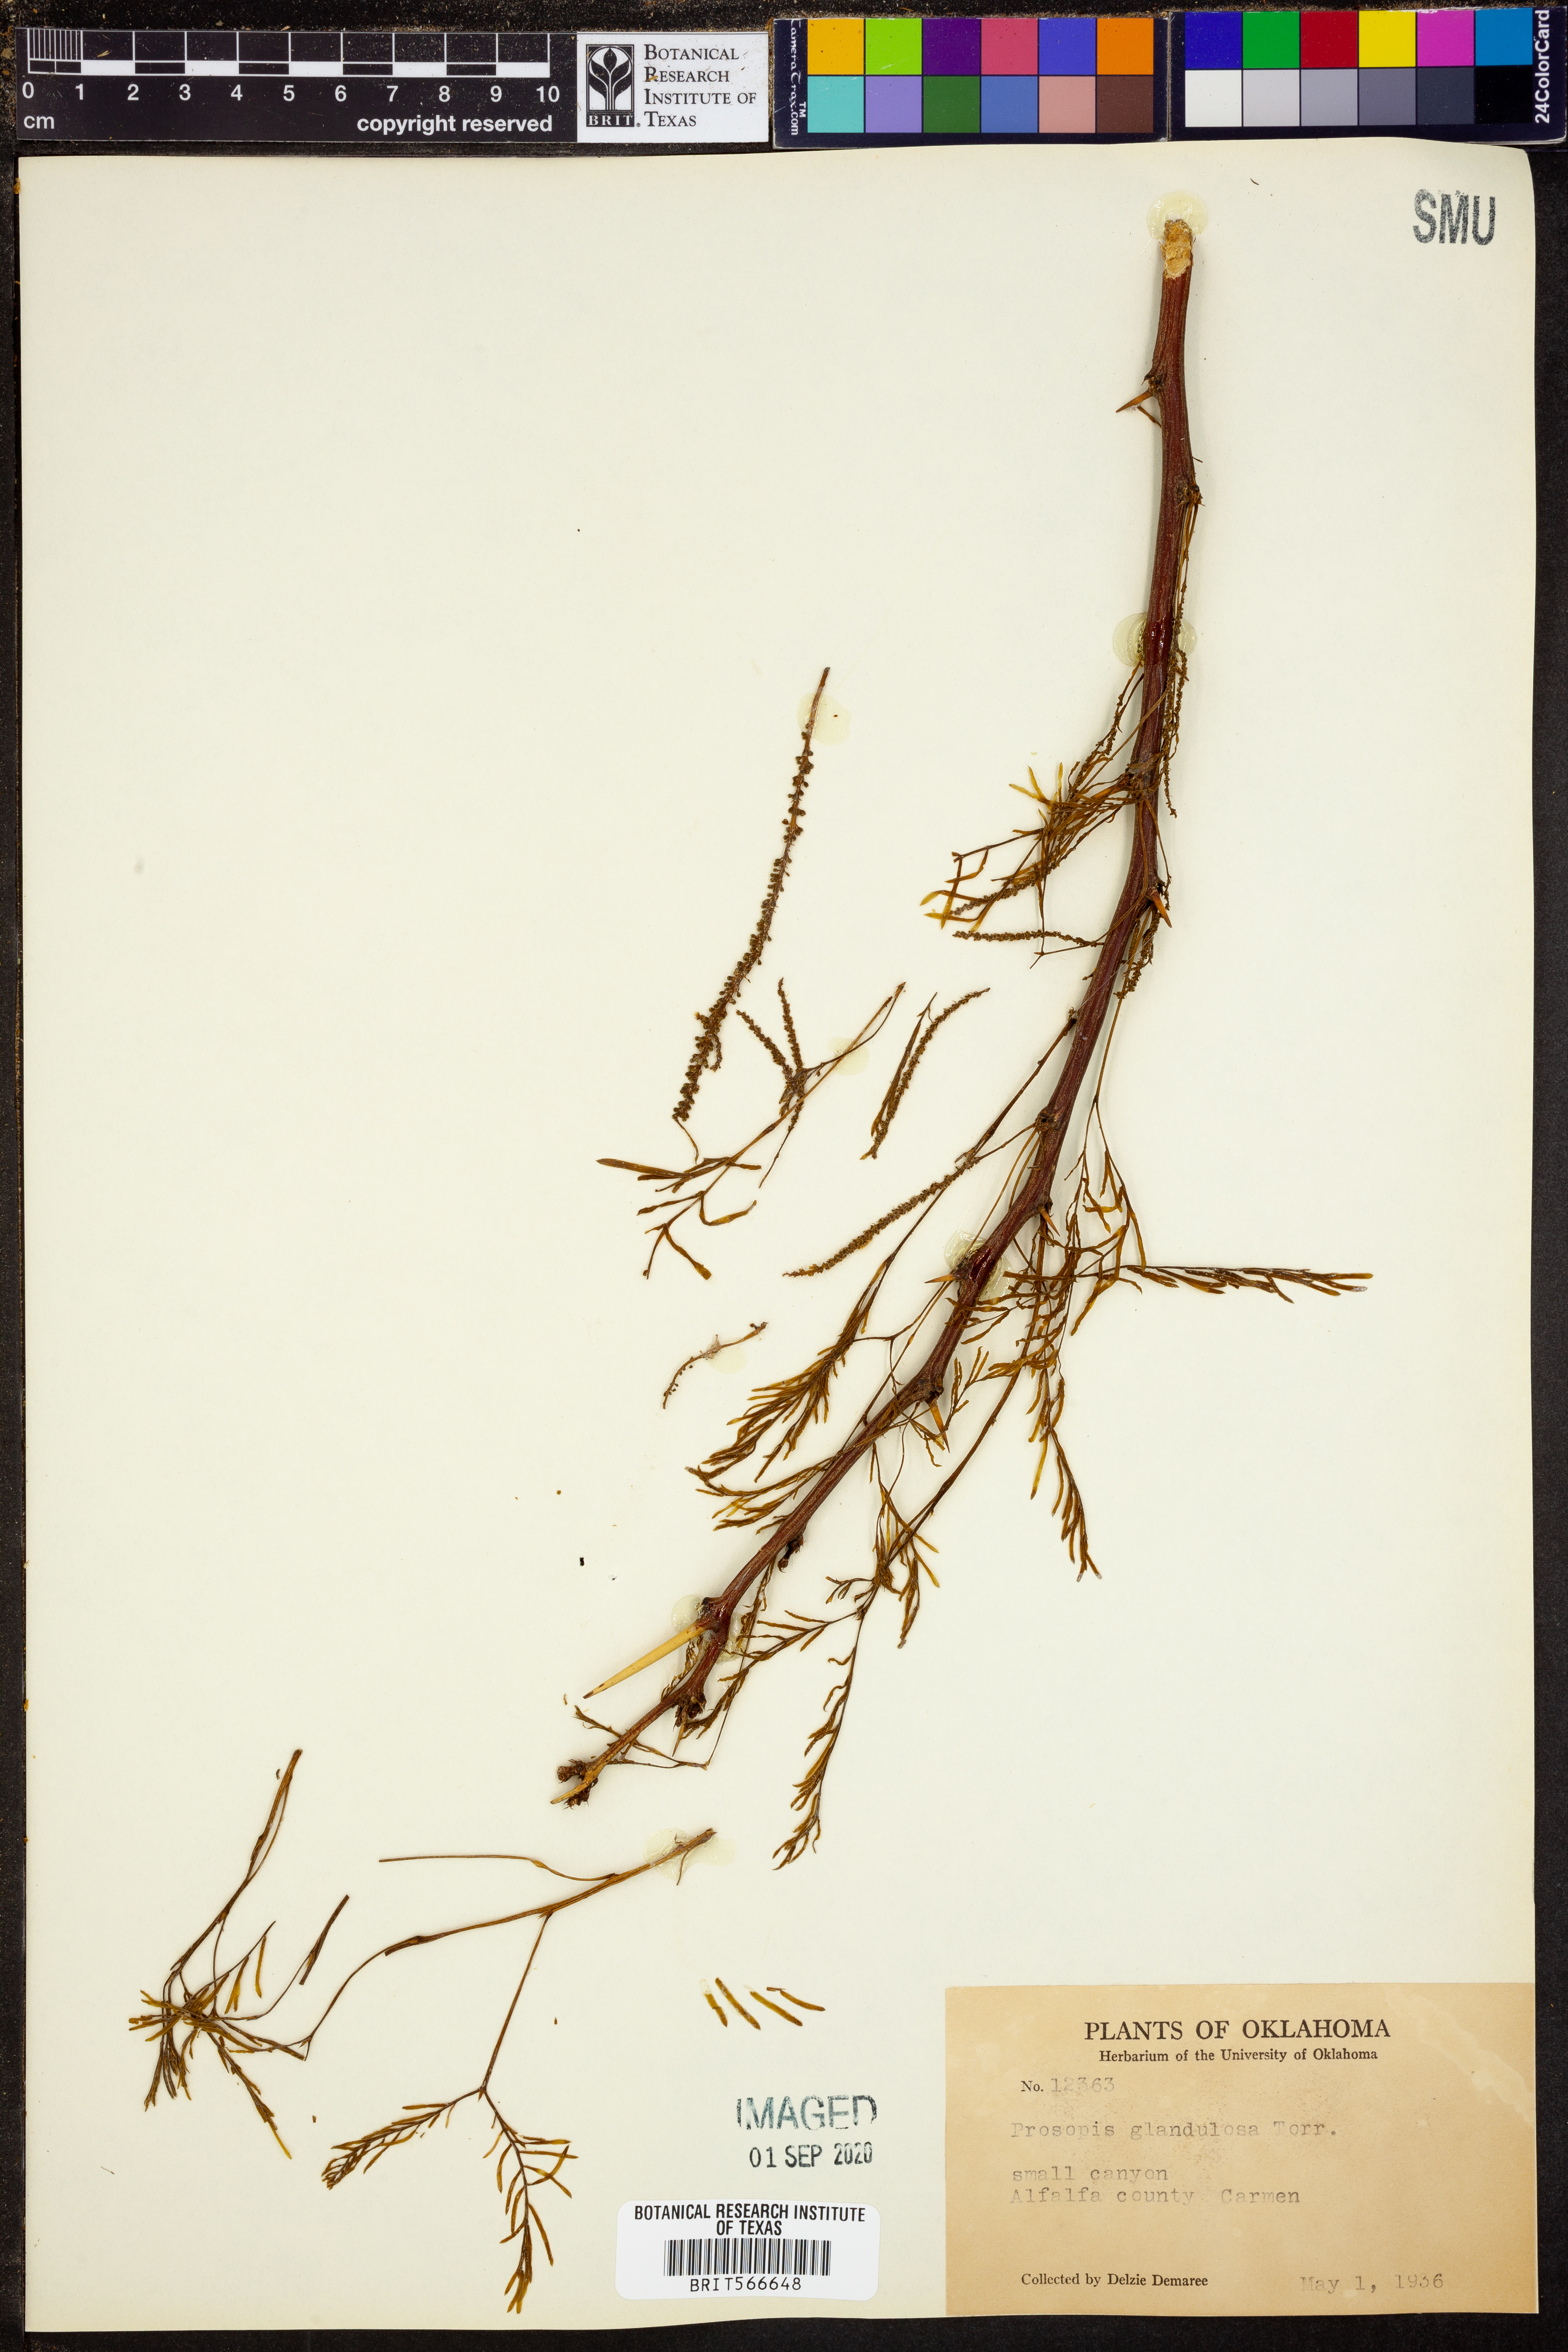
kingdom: Plantae
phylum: Tracheophyta
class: Magnoliopsida
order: Fabales
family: Fabaceae
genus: Prosopis
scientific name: Prosopis glandulosa
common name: Honey mesquite
